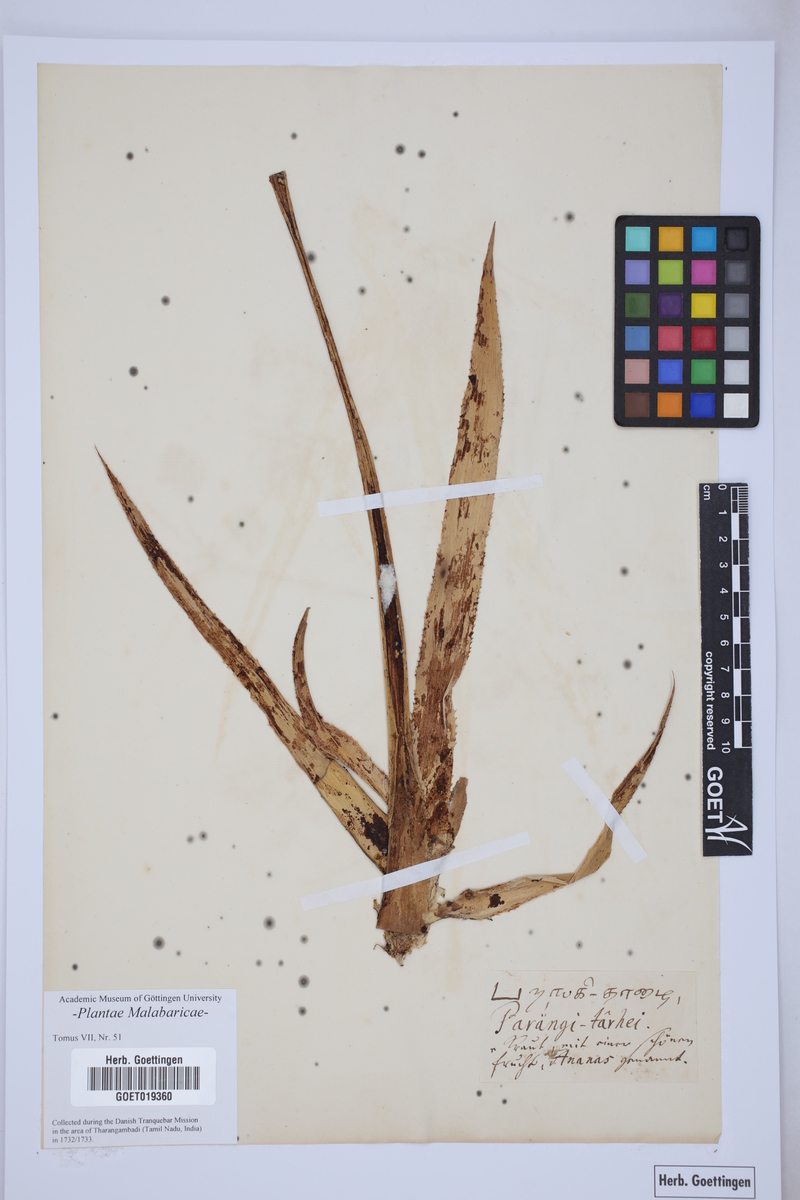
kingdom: Plantae
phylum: Tracheophyta
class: Liliopsida
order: Poales
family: Bromeliaceae
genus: Ananas
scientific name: Ananas comosus
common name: Pineapple
